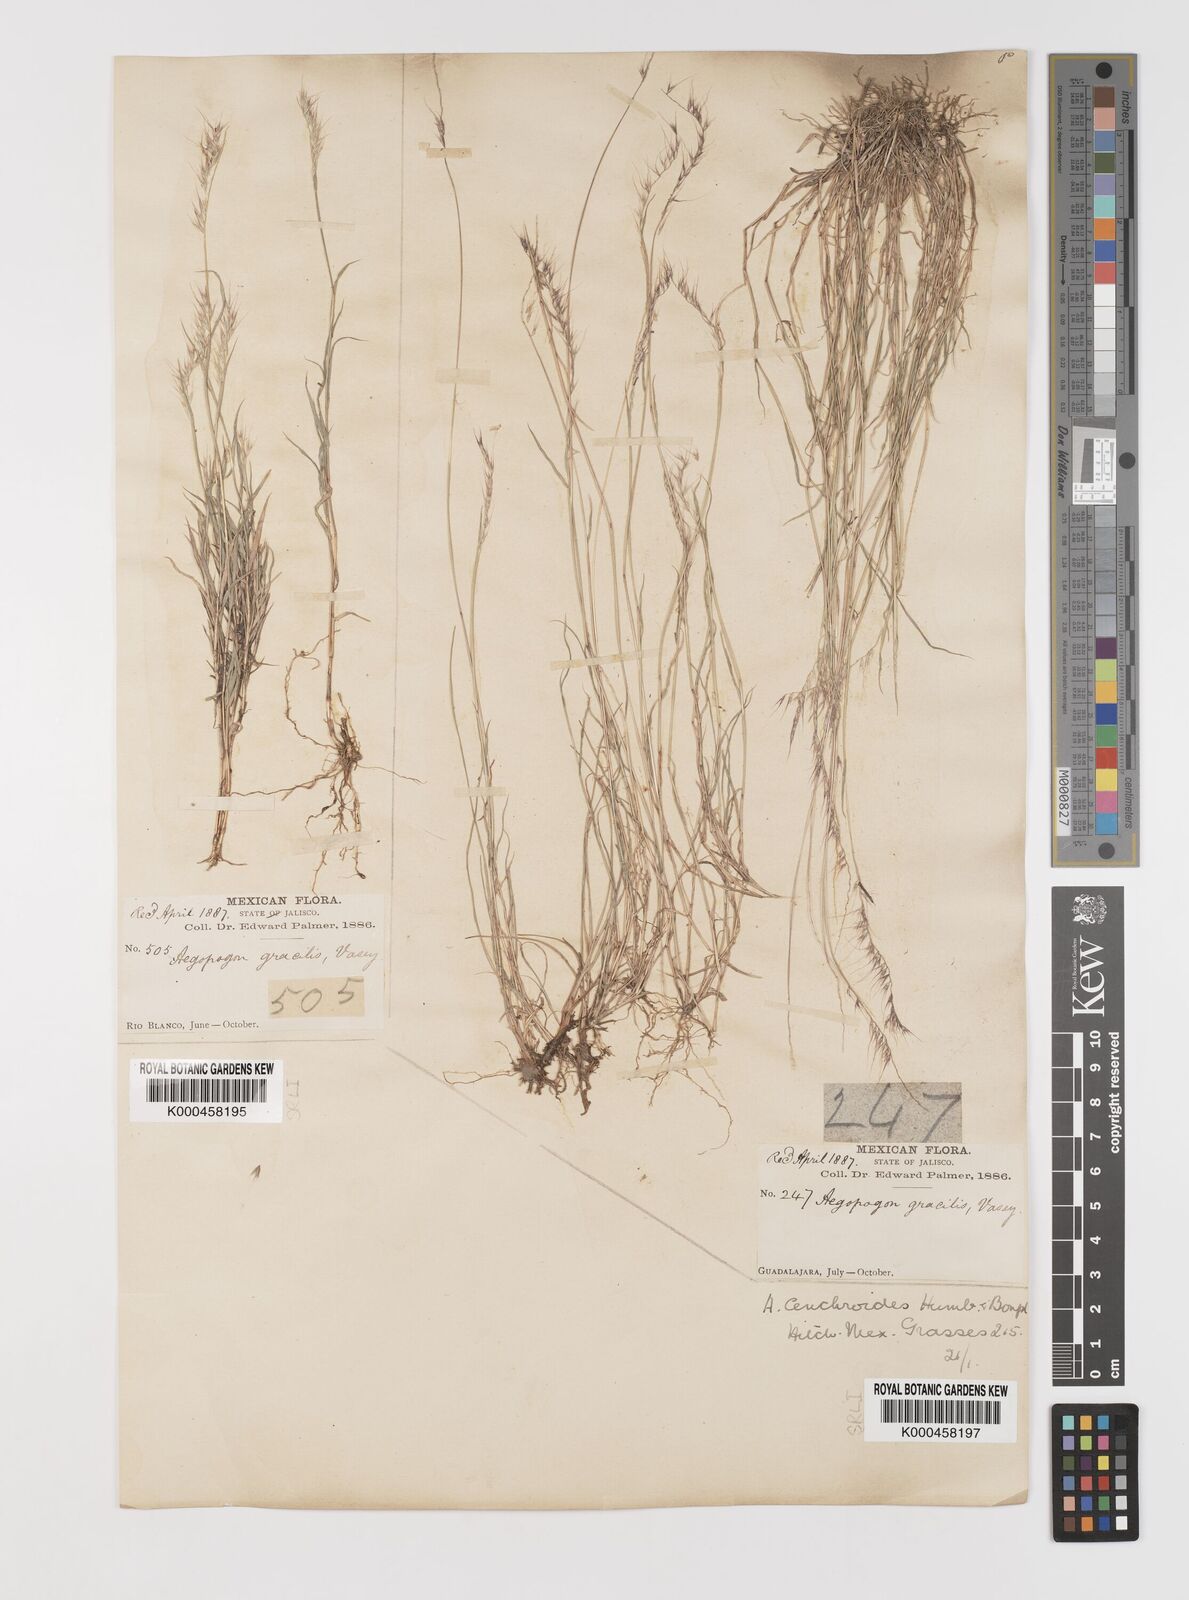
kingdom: Plantae
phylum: Tracheophyta
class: Liliopsida
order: Poales
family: Poaceae
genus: Muhlenbergia
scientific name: Muhlenbergia
